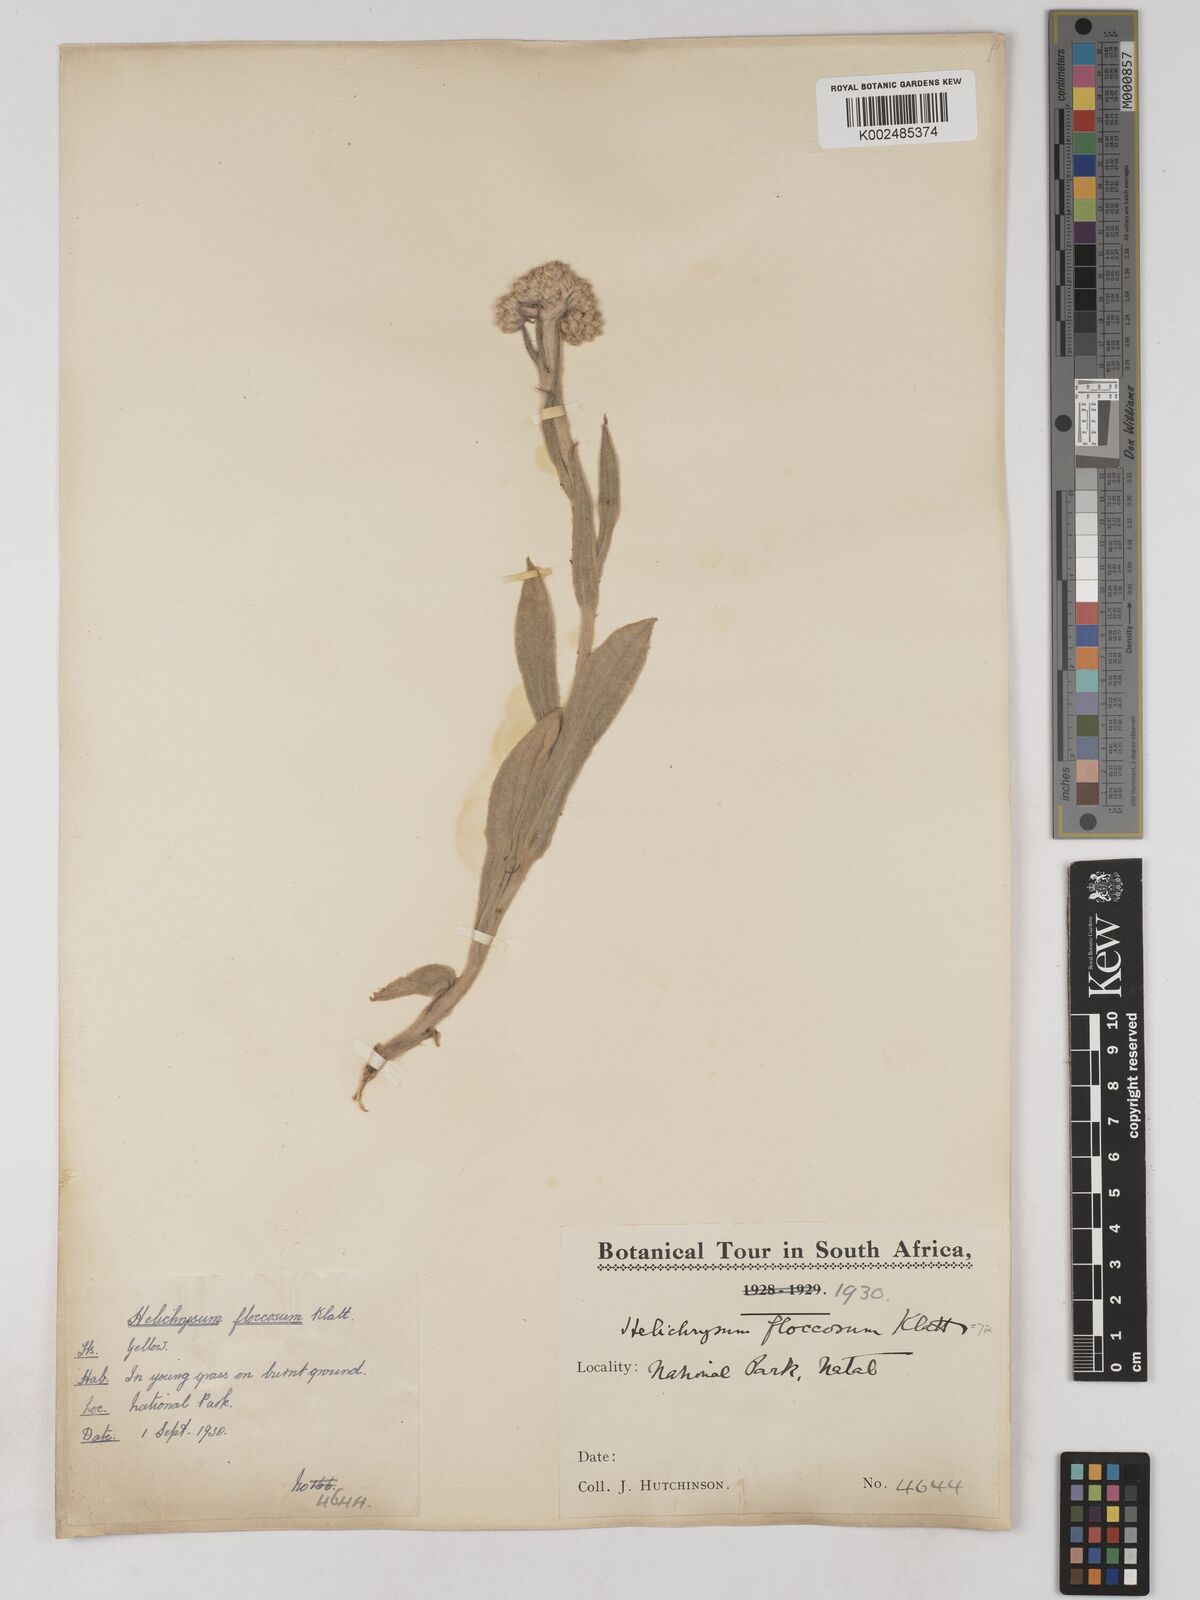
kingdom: Plantae
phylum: Tracheophyta
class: Magnoliopsida
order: Asterales
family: Asteraceae
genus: Helichrysum
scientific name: Helichrysum acutatum
